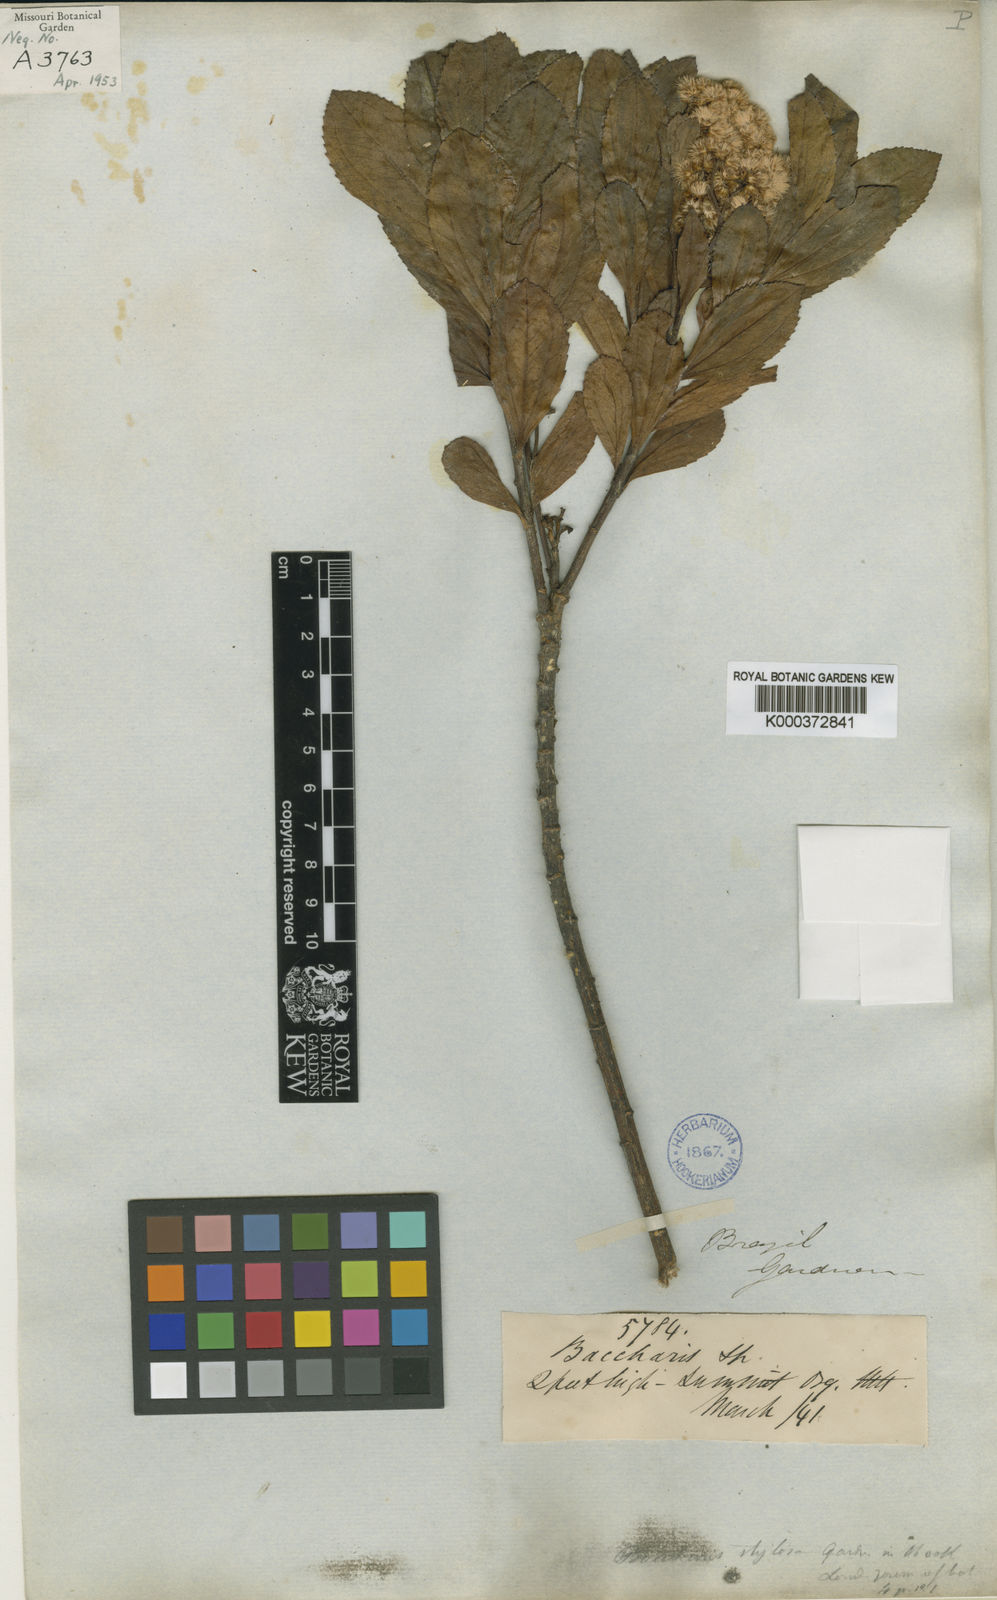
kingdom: Plantae
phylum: Tracheophyta
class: Magnoliopsida
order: Asterales
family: Asteraceae
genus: Baccharis
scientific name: Baccharis stylosa
